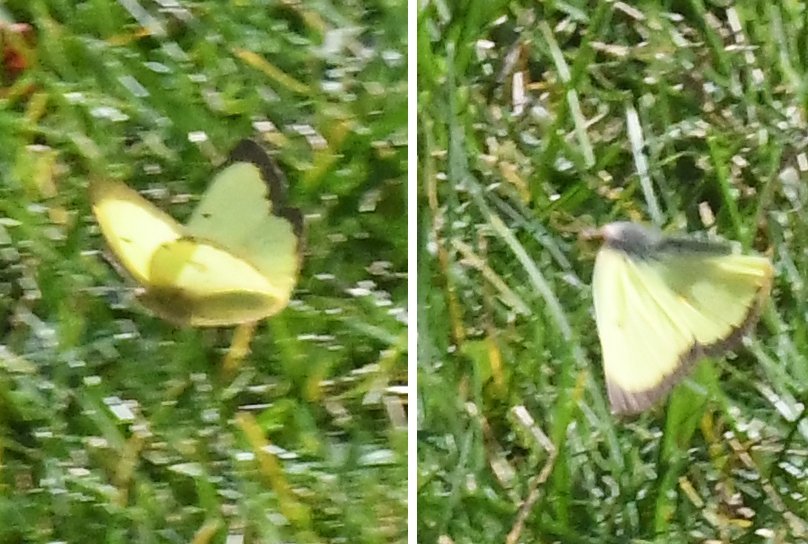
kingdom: Animalia
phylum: Arthropoda
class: Insecta
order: Lepidoptera
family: Pieridae
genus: Colias
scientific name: Colias philodice
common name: Clouded Sulphur
